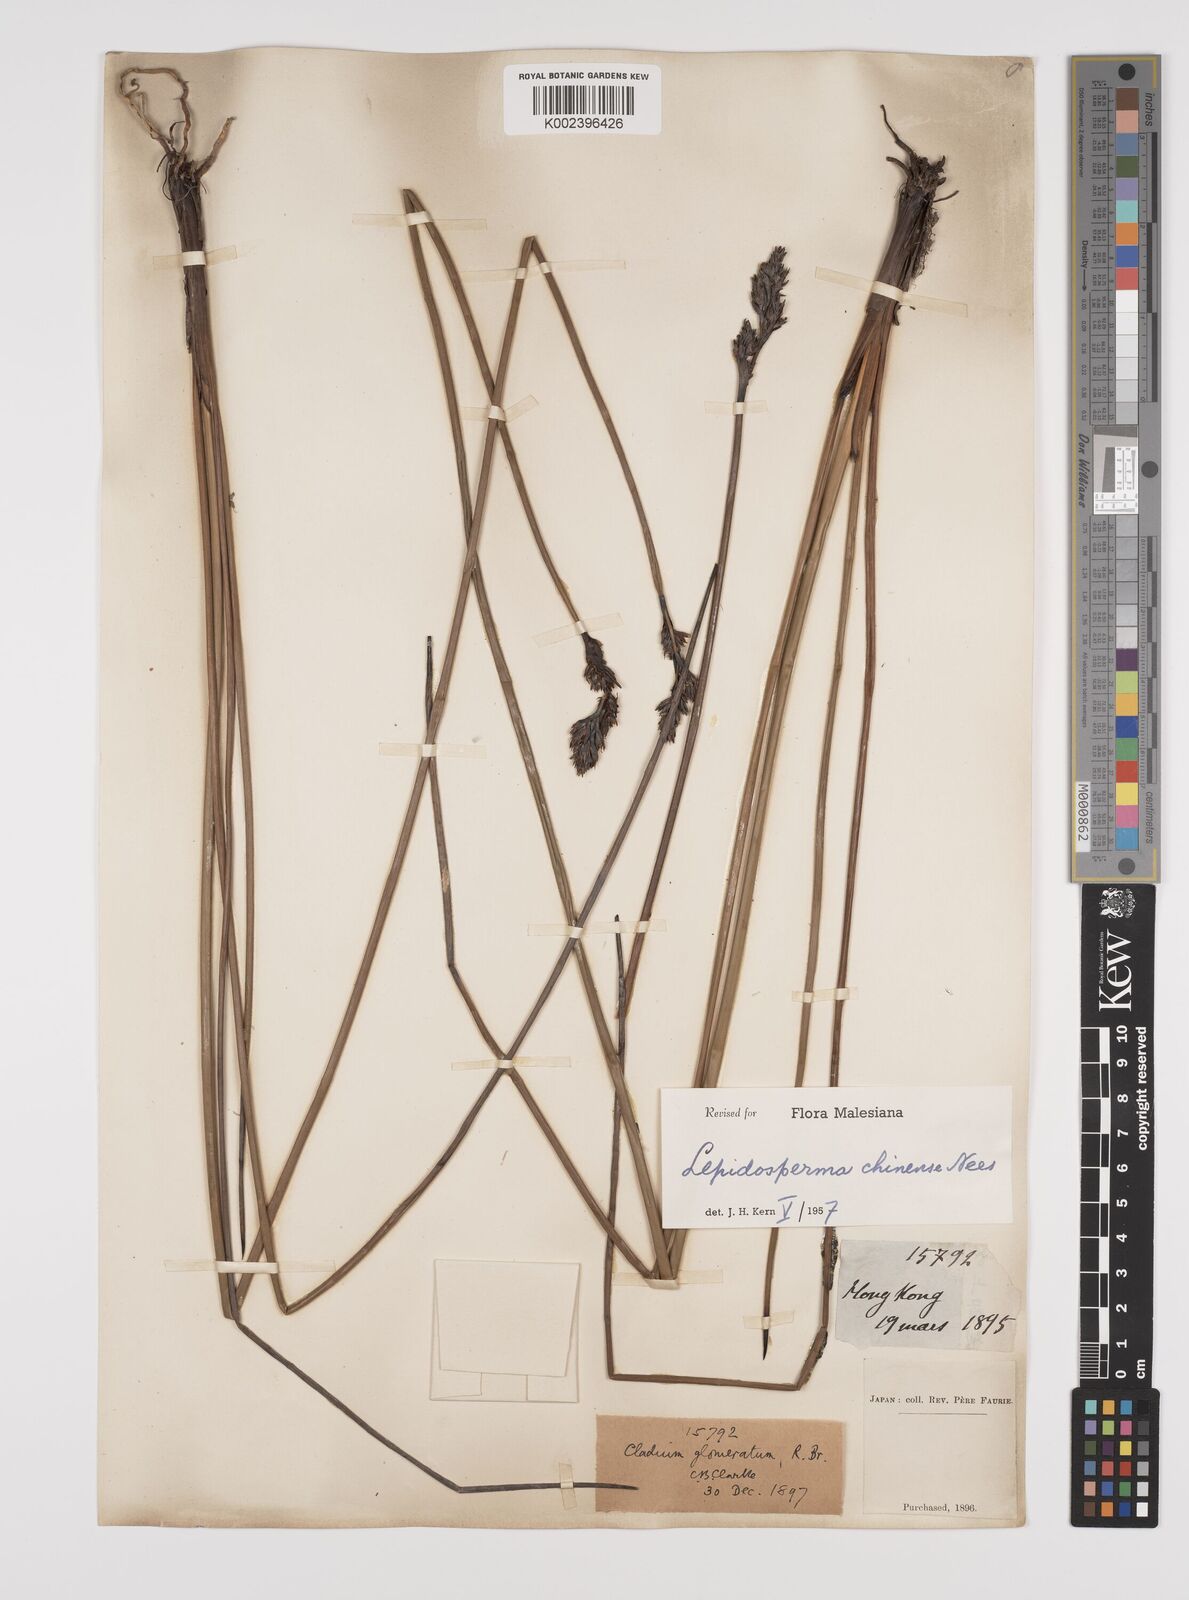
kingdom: Plantae
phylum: Tracheophyta
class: Liliopsida
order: Poales
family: Cyperaceae
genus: Lepidosperma
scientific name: Lepidosperma chinense
